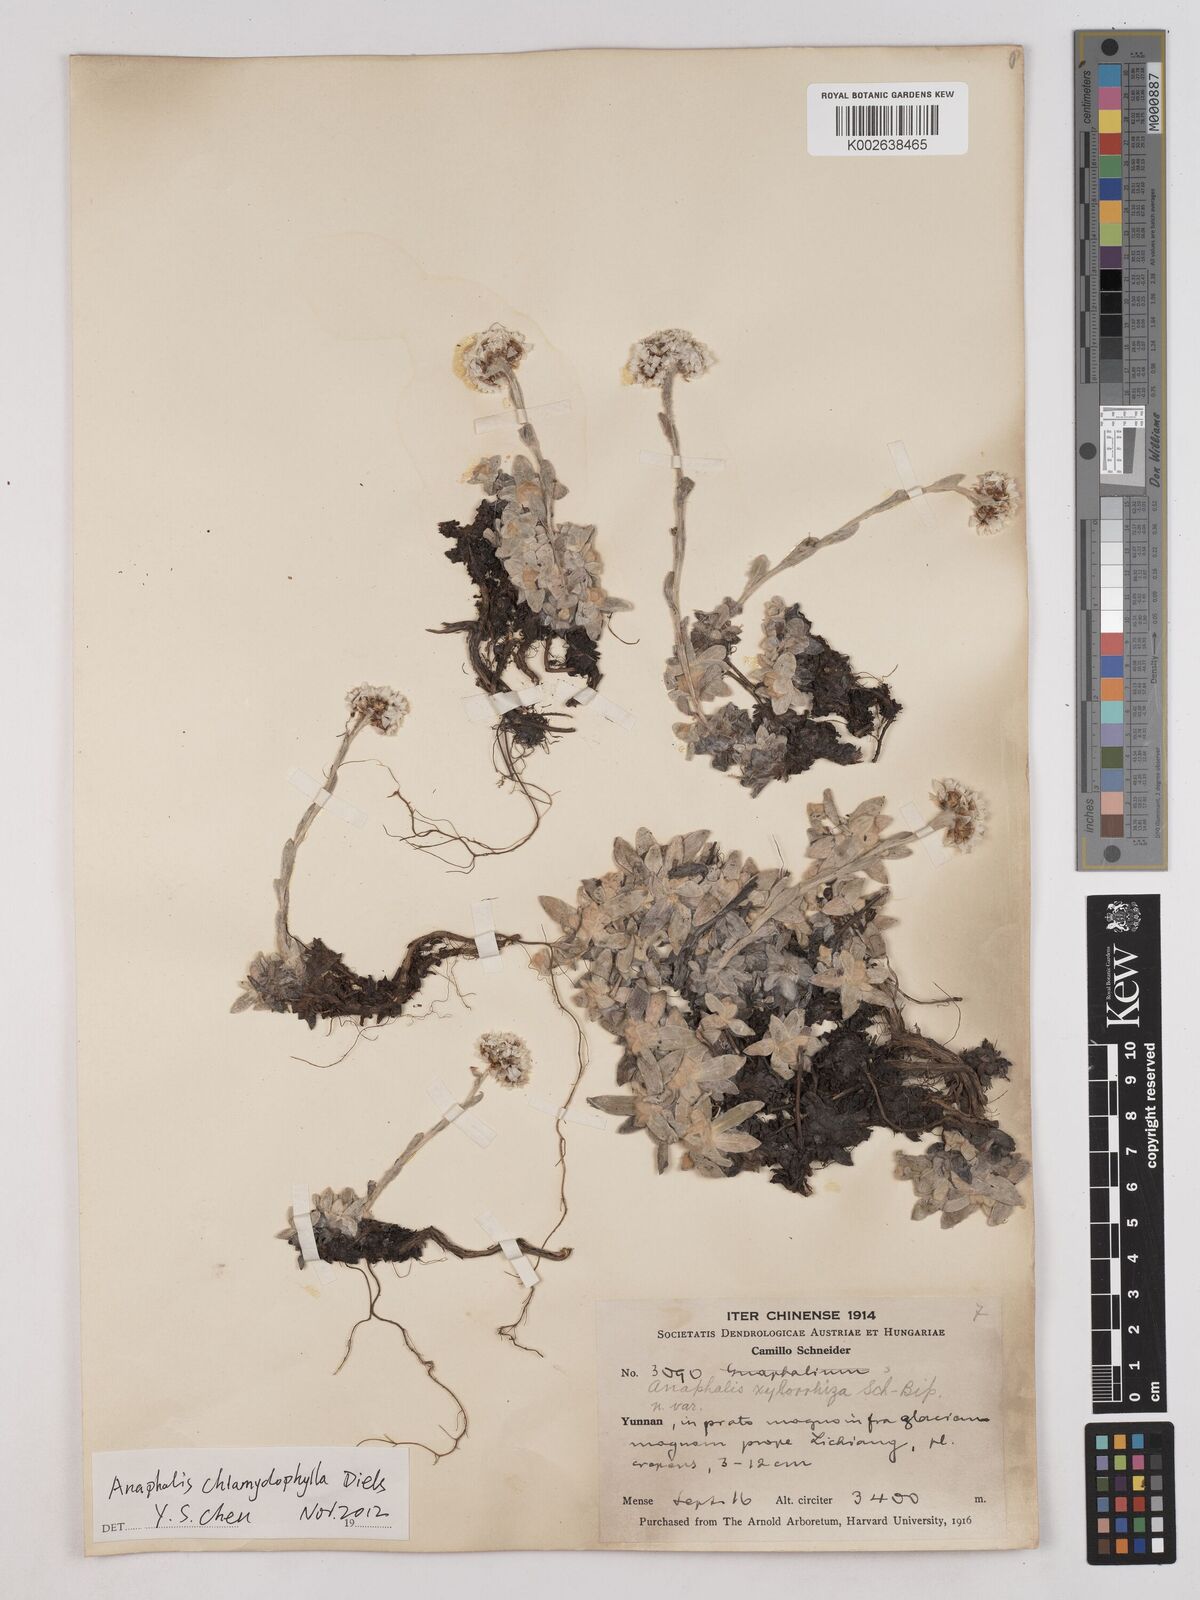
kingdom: Plantae
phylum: Tracheophyta
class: Magnoliopsida
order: Asterales
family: Asteraceae
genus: Anaphalis
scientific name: Anaphalis chlamydophylla
